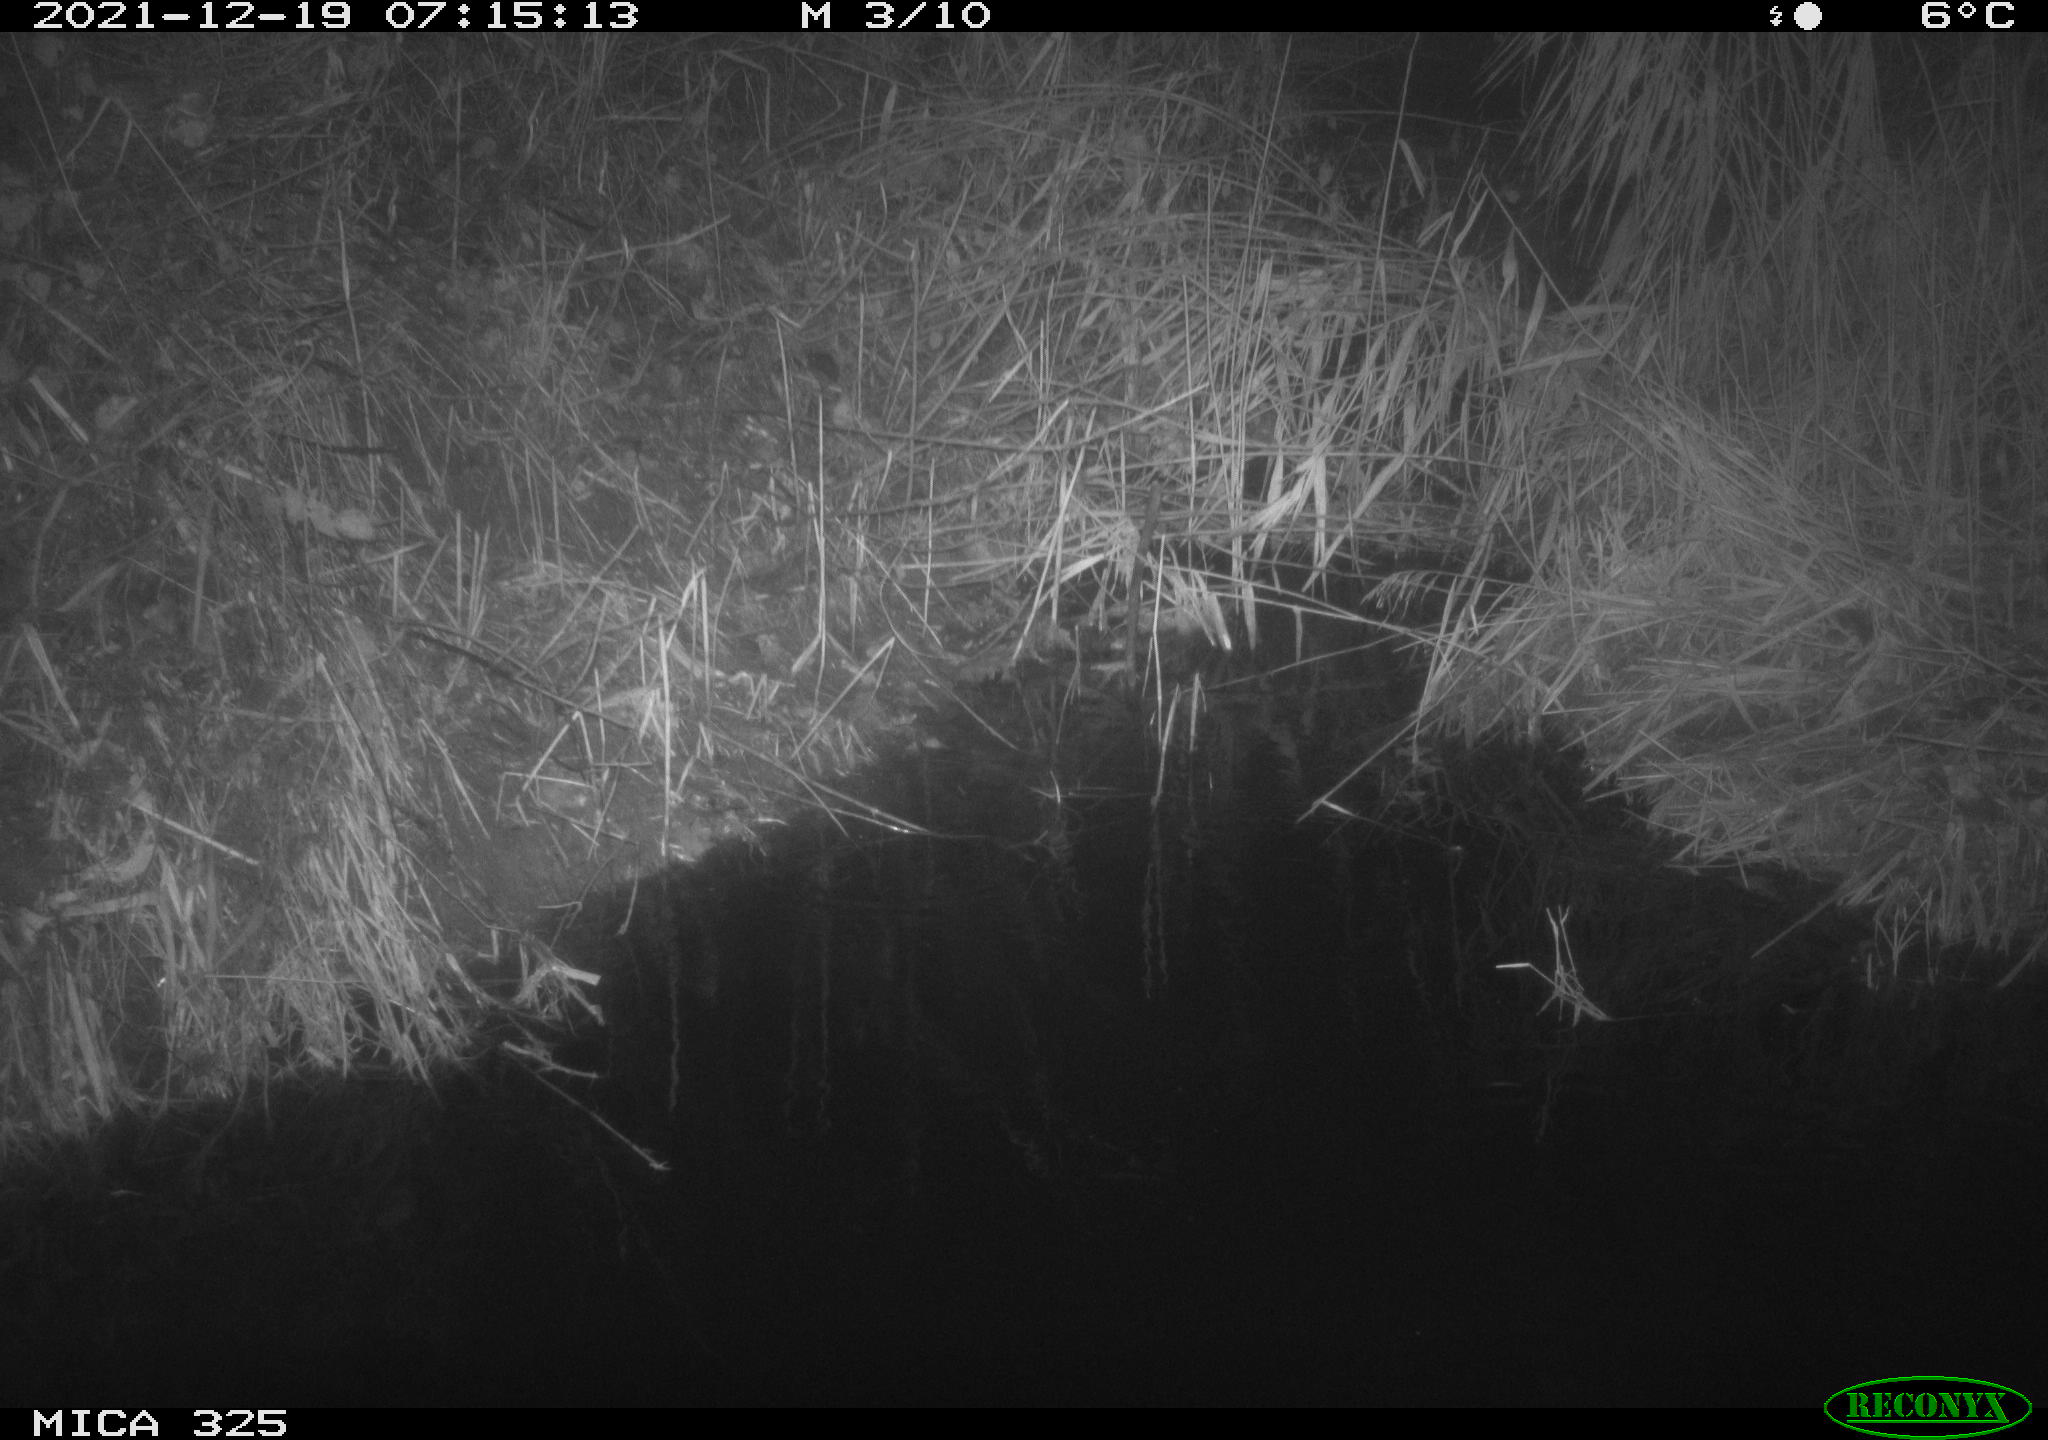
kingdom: Animalia
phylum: Chordata
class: Mammalia
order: Rodentia
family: Muridae
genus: Rattus
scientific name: Rattus norvegicus
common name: Brown rat
